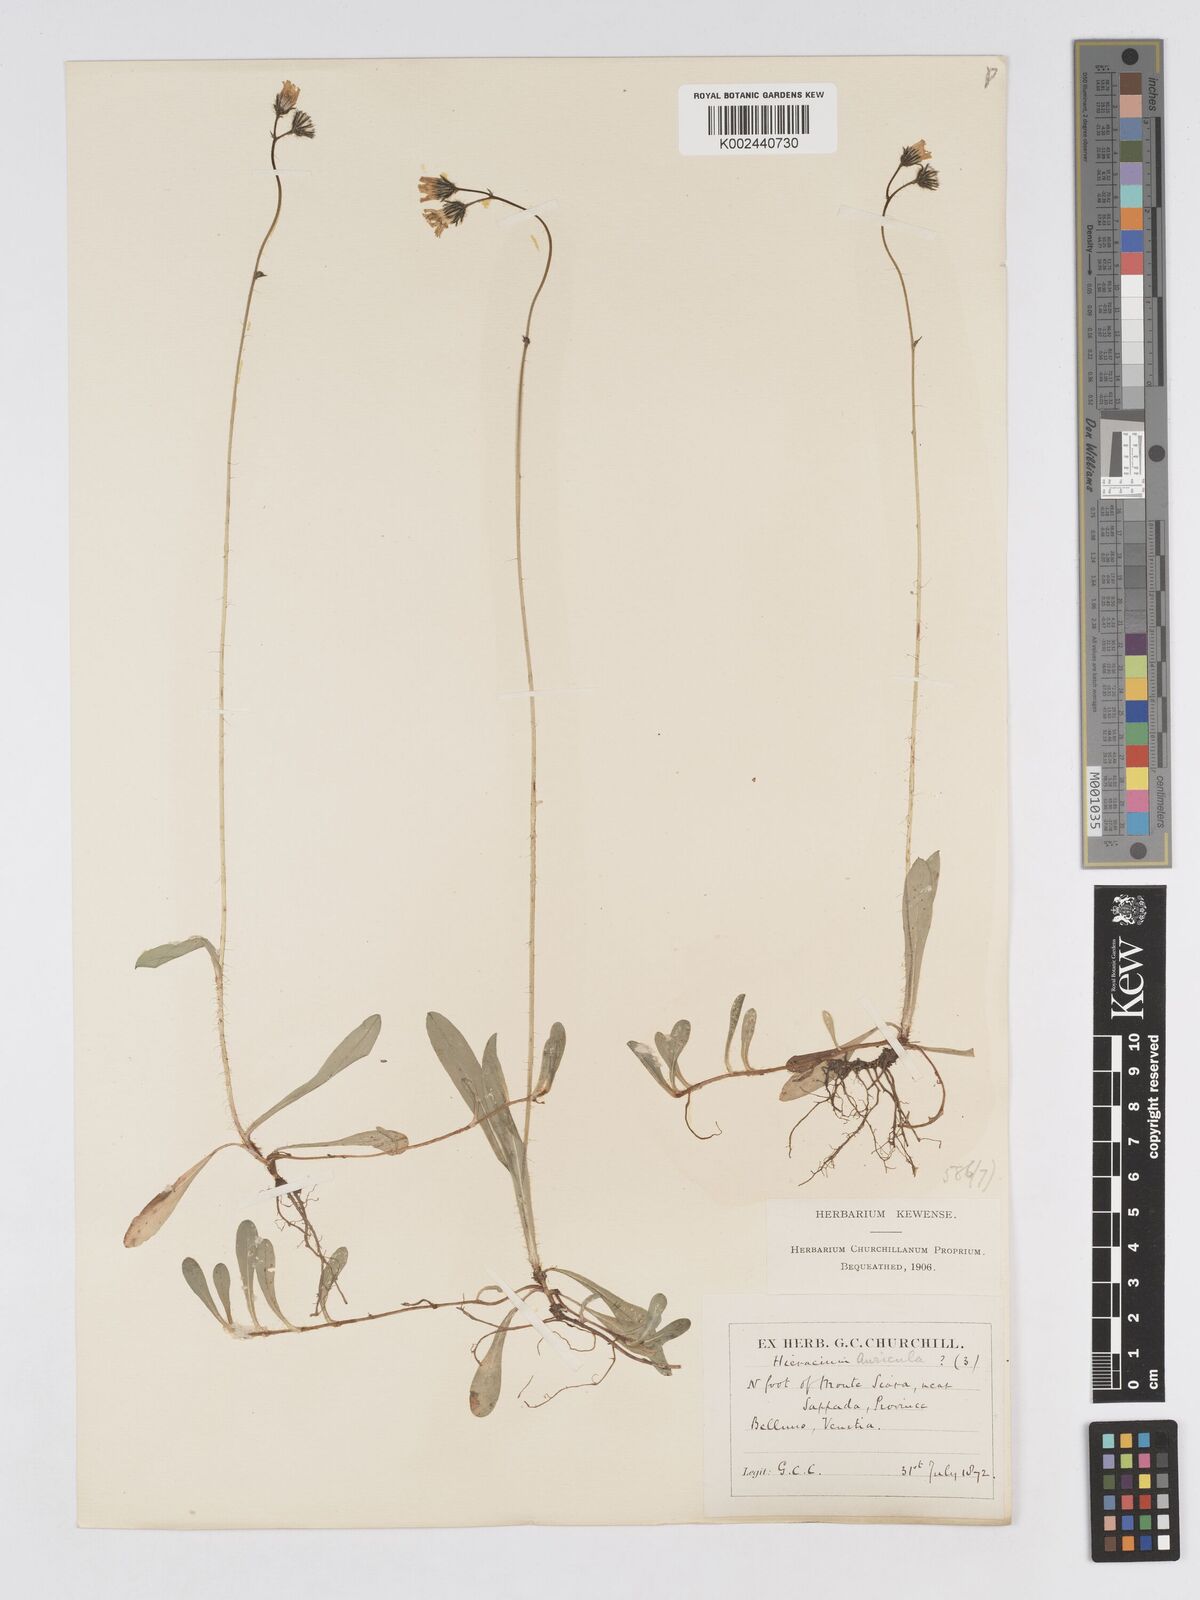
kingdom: Plantae
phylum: Tracheophyta
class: Magnoliopsida
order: Asterales
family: Asteraceae
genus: Pilosella
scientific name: Pilosella floribunda
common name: Glaucous hawkweed
